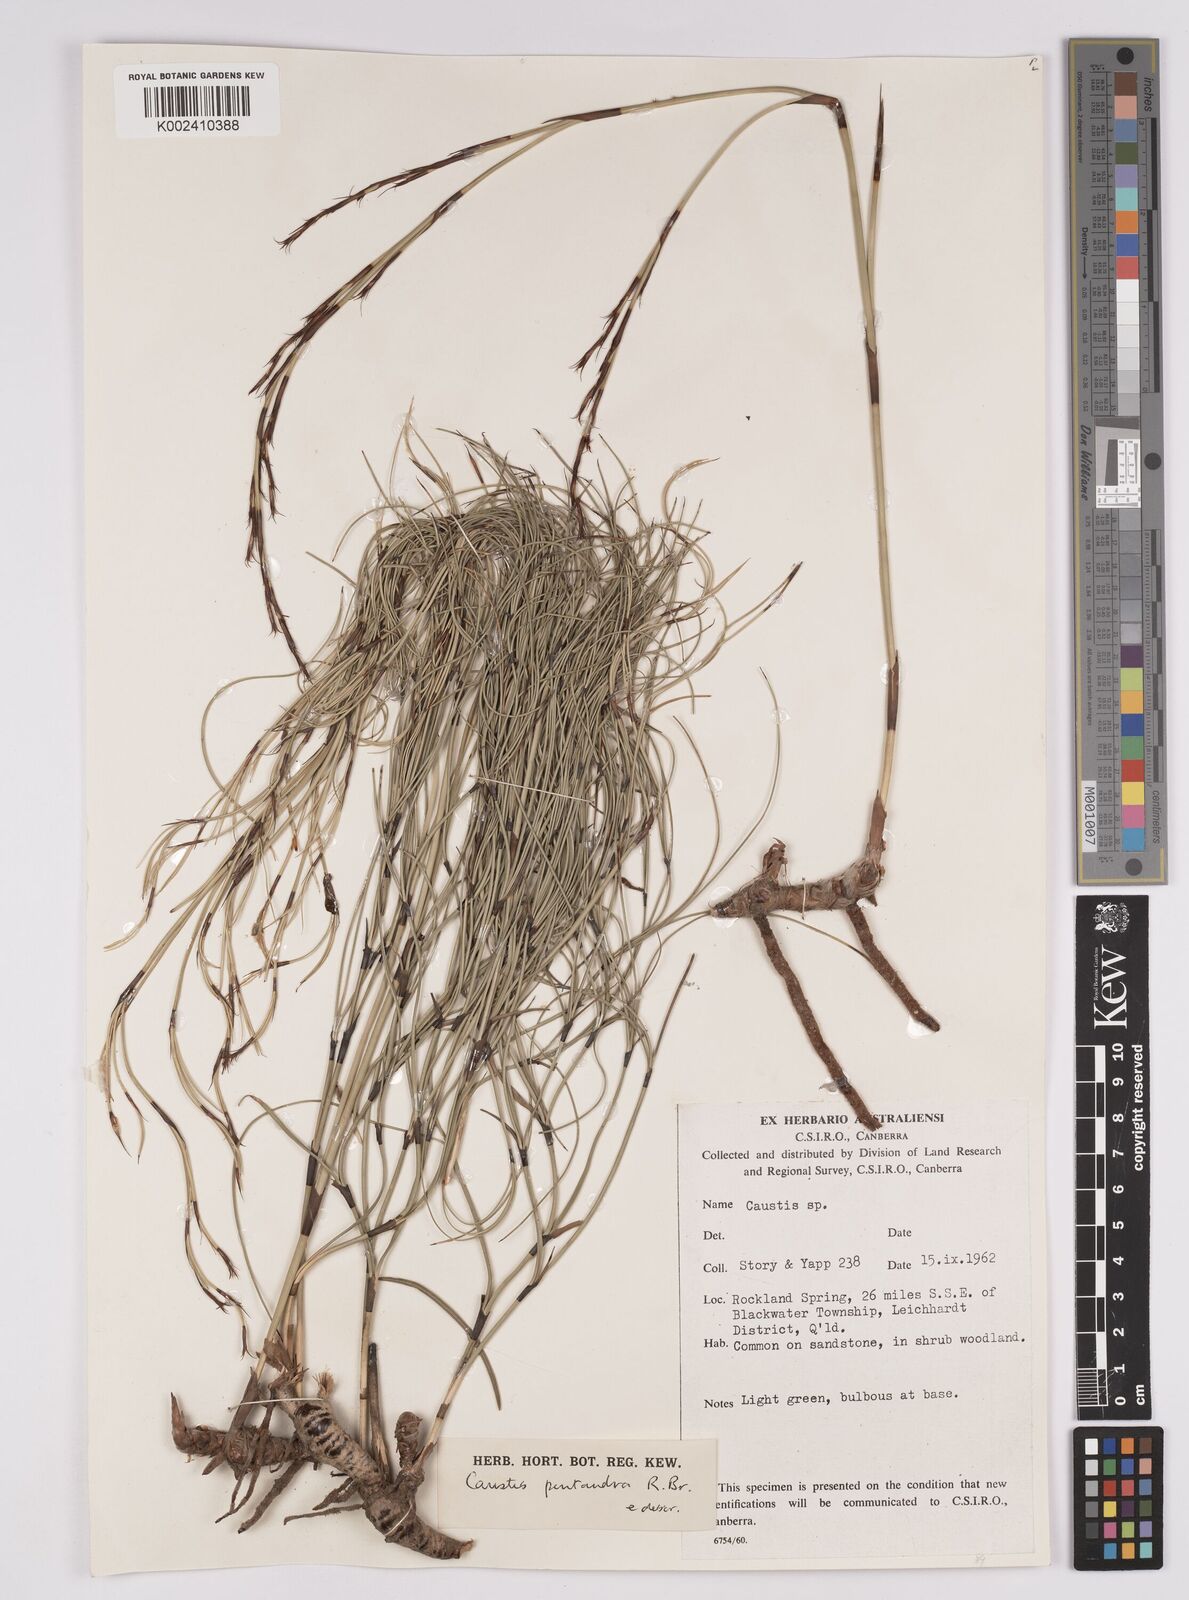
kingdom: Plantae
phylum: Tracheophyta
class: Liliopsida
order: Poales
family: Cyperaceae
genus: Caustis
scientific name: Caustis pentandra
